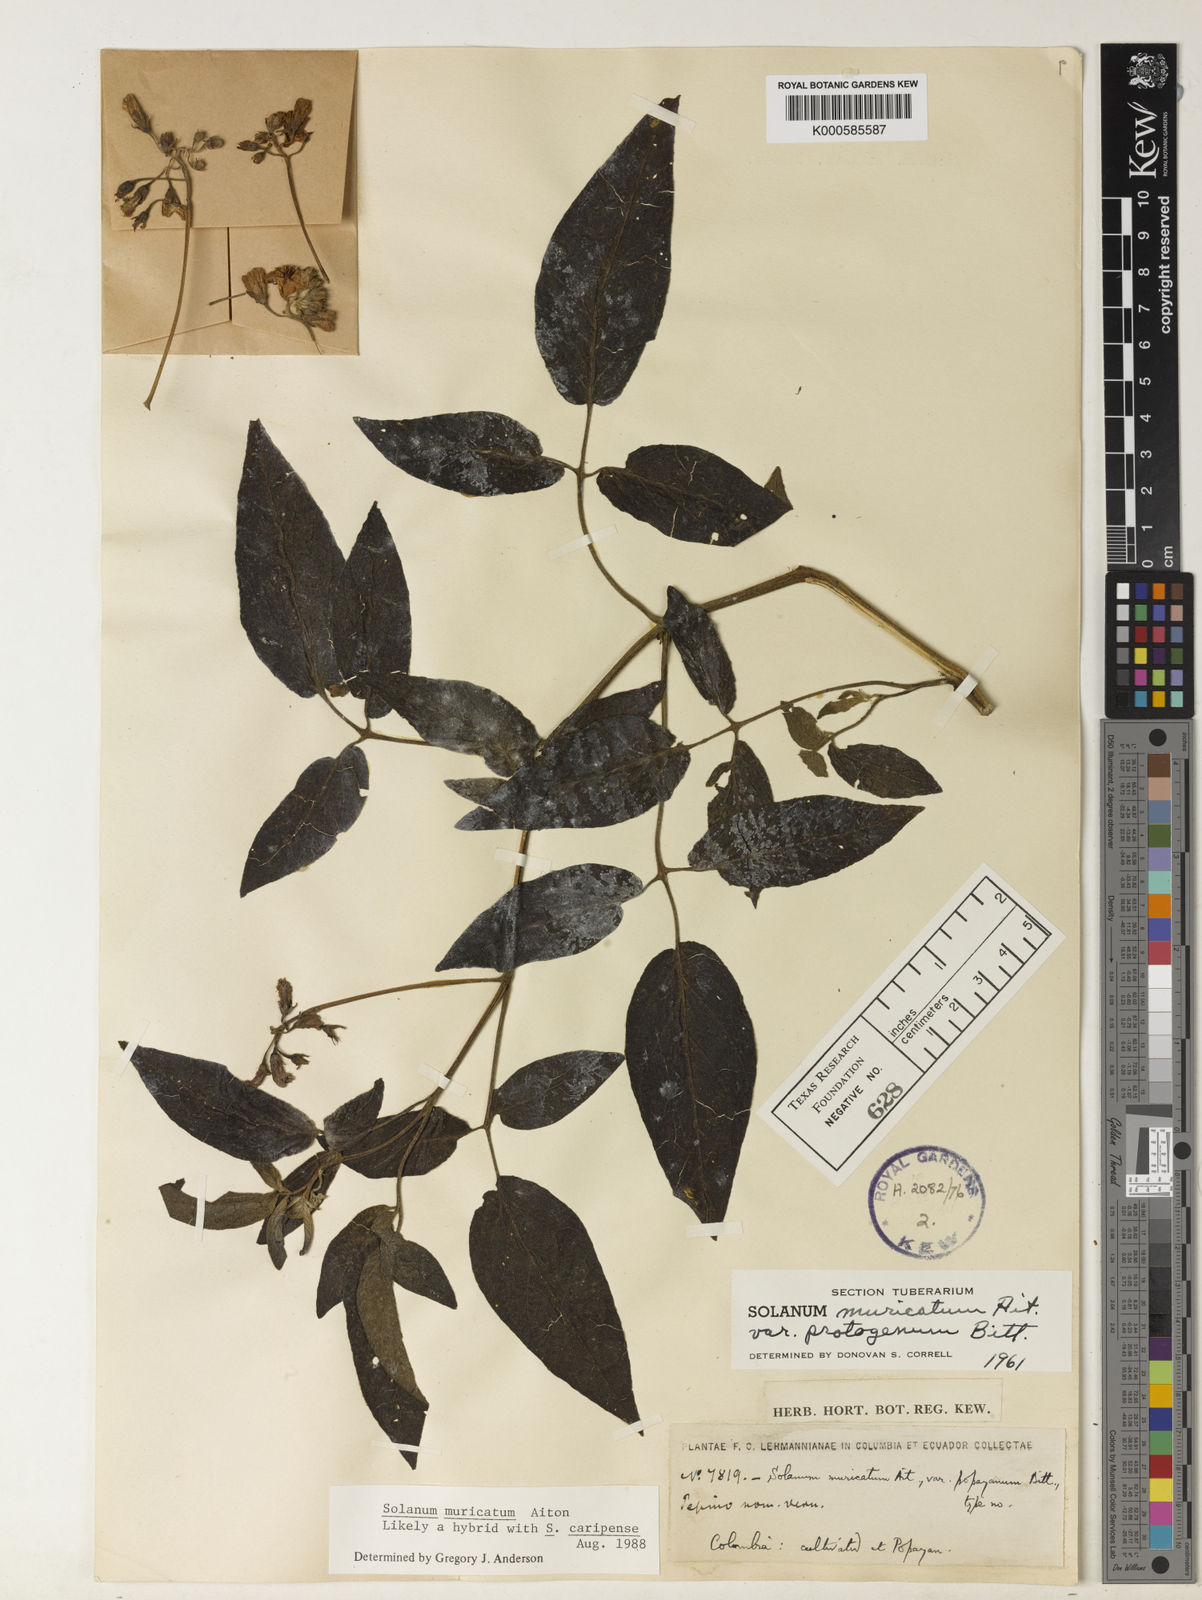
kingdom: Plantae
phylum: Tracheophyta
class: Magnoliopsida
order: Solanales
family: Solanaceae
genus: Solanum
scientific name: Solanum muricatum
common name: Peruvian pepino
